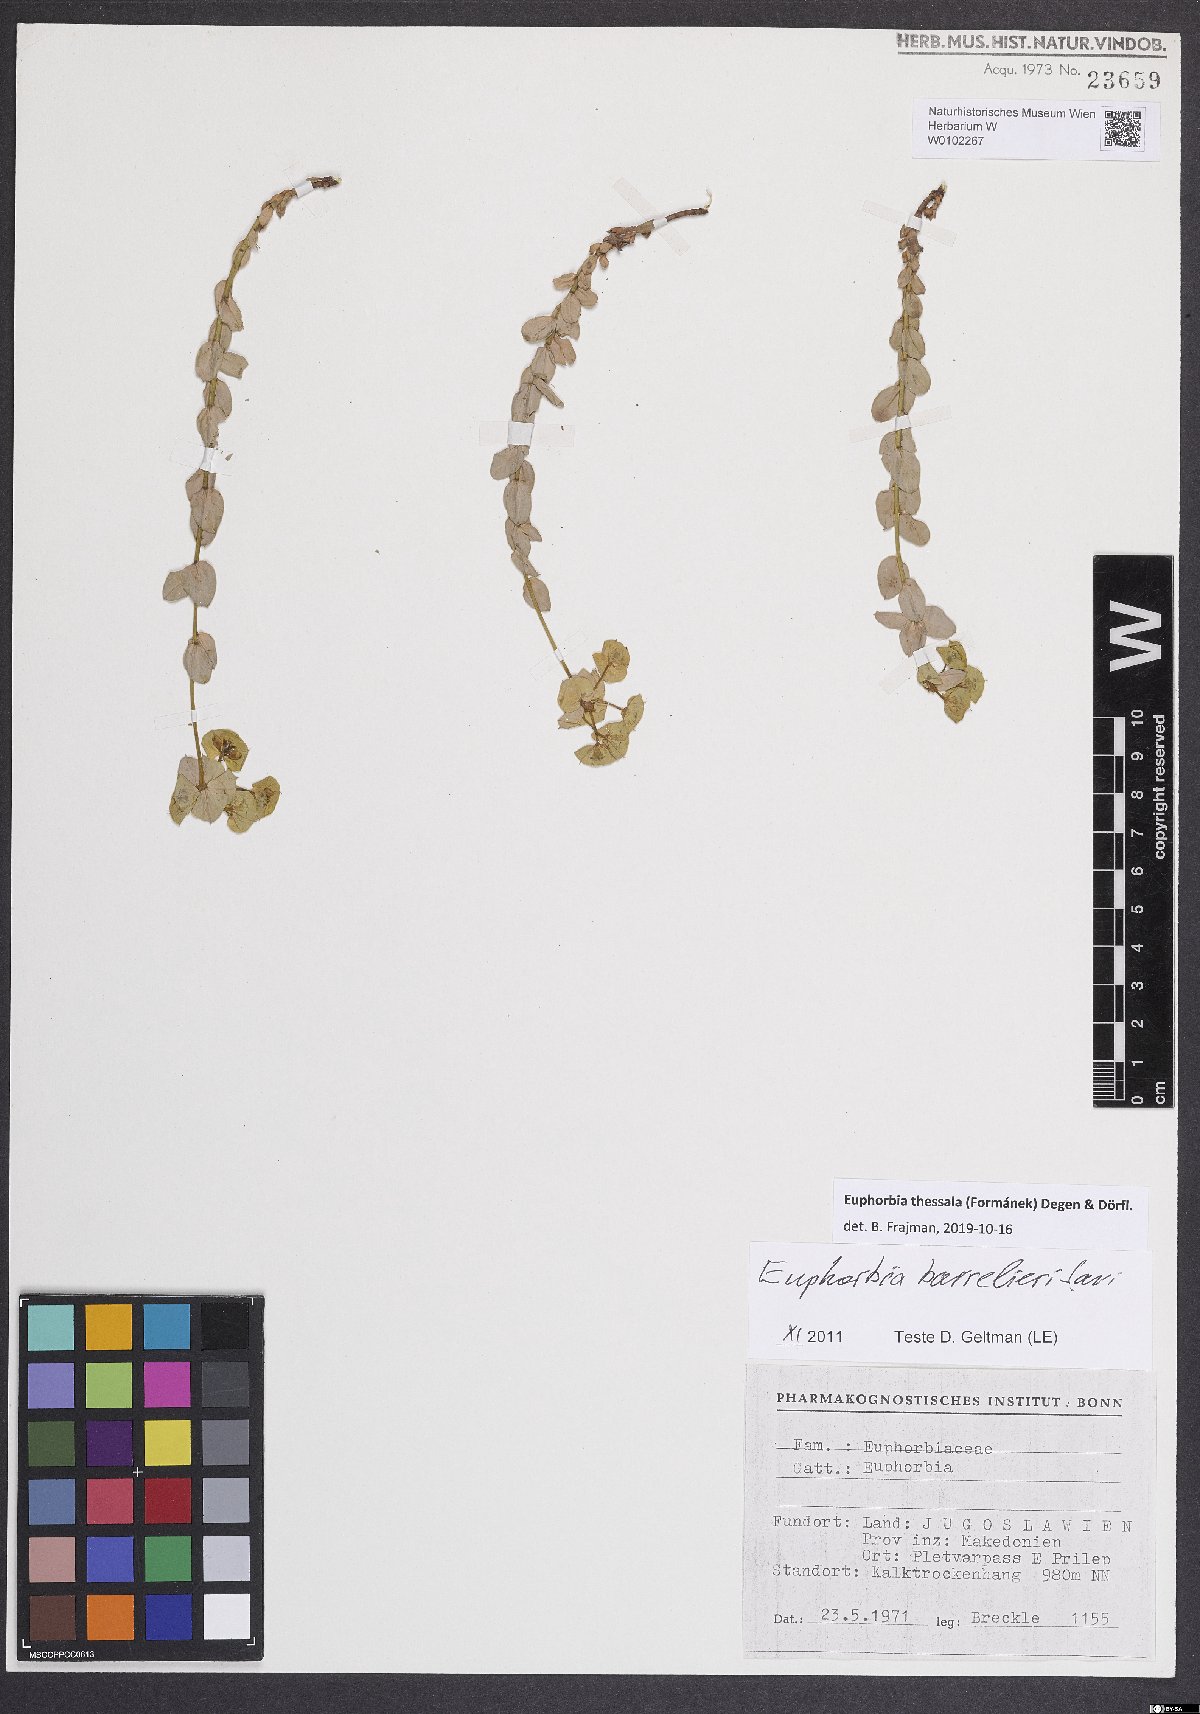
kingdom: Plantae
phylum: Tracheophyta
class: Magnoliopsida
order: Malpighiales
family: Euphorbiaceae
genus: Euphorbia
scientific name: Euphorbia barrelieri
